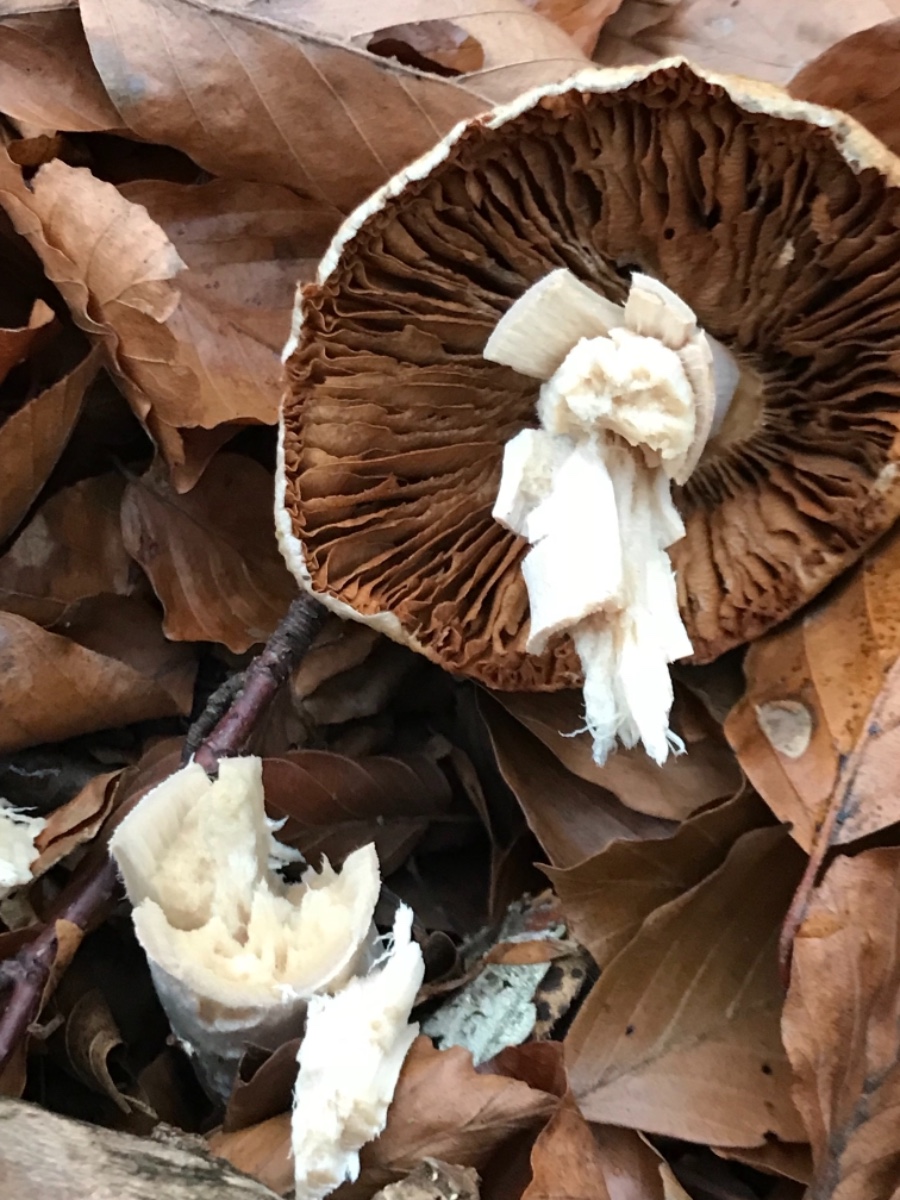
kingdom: Fungi
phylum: Basidiomycota
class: Agaricomycetes
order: Agaricales
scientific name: Agaricales
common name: champignonordenen
